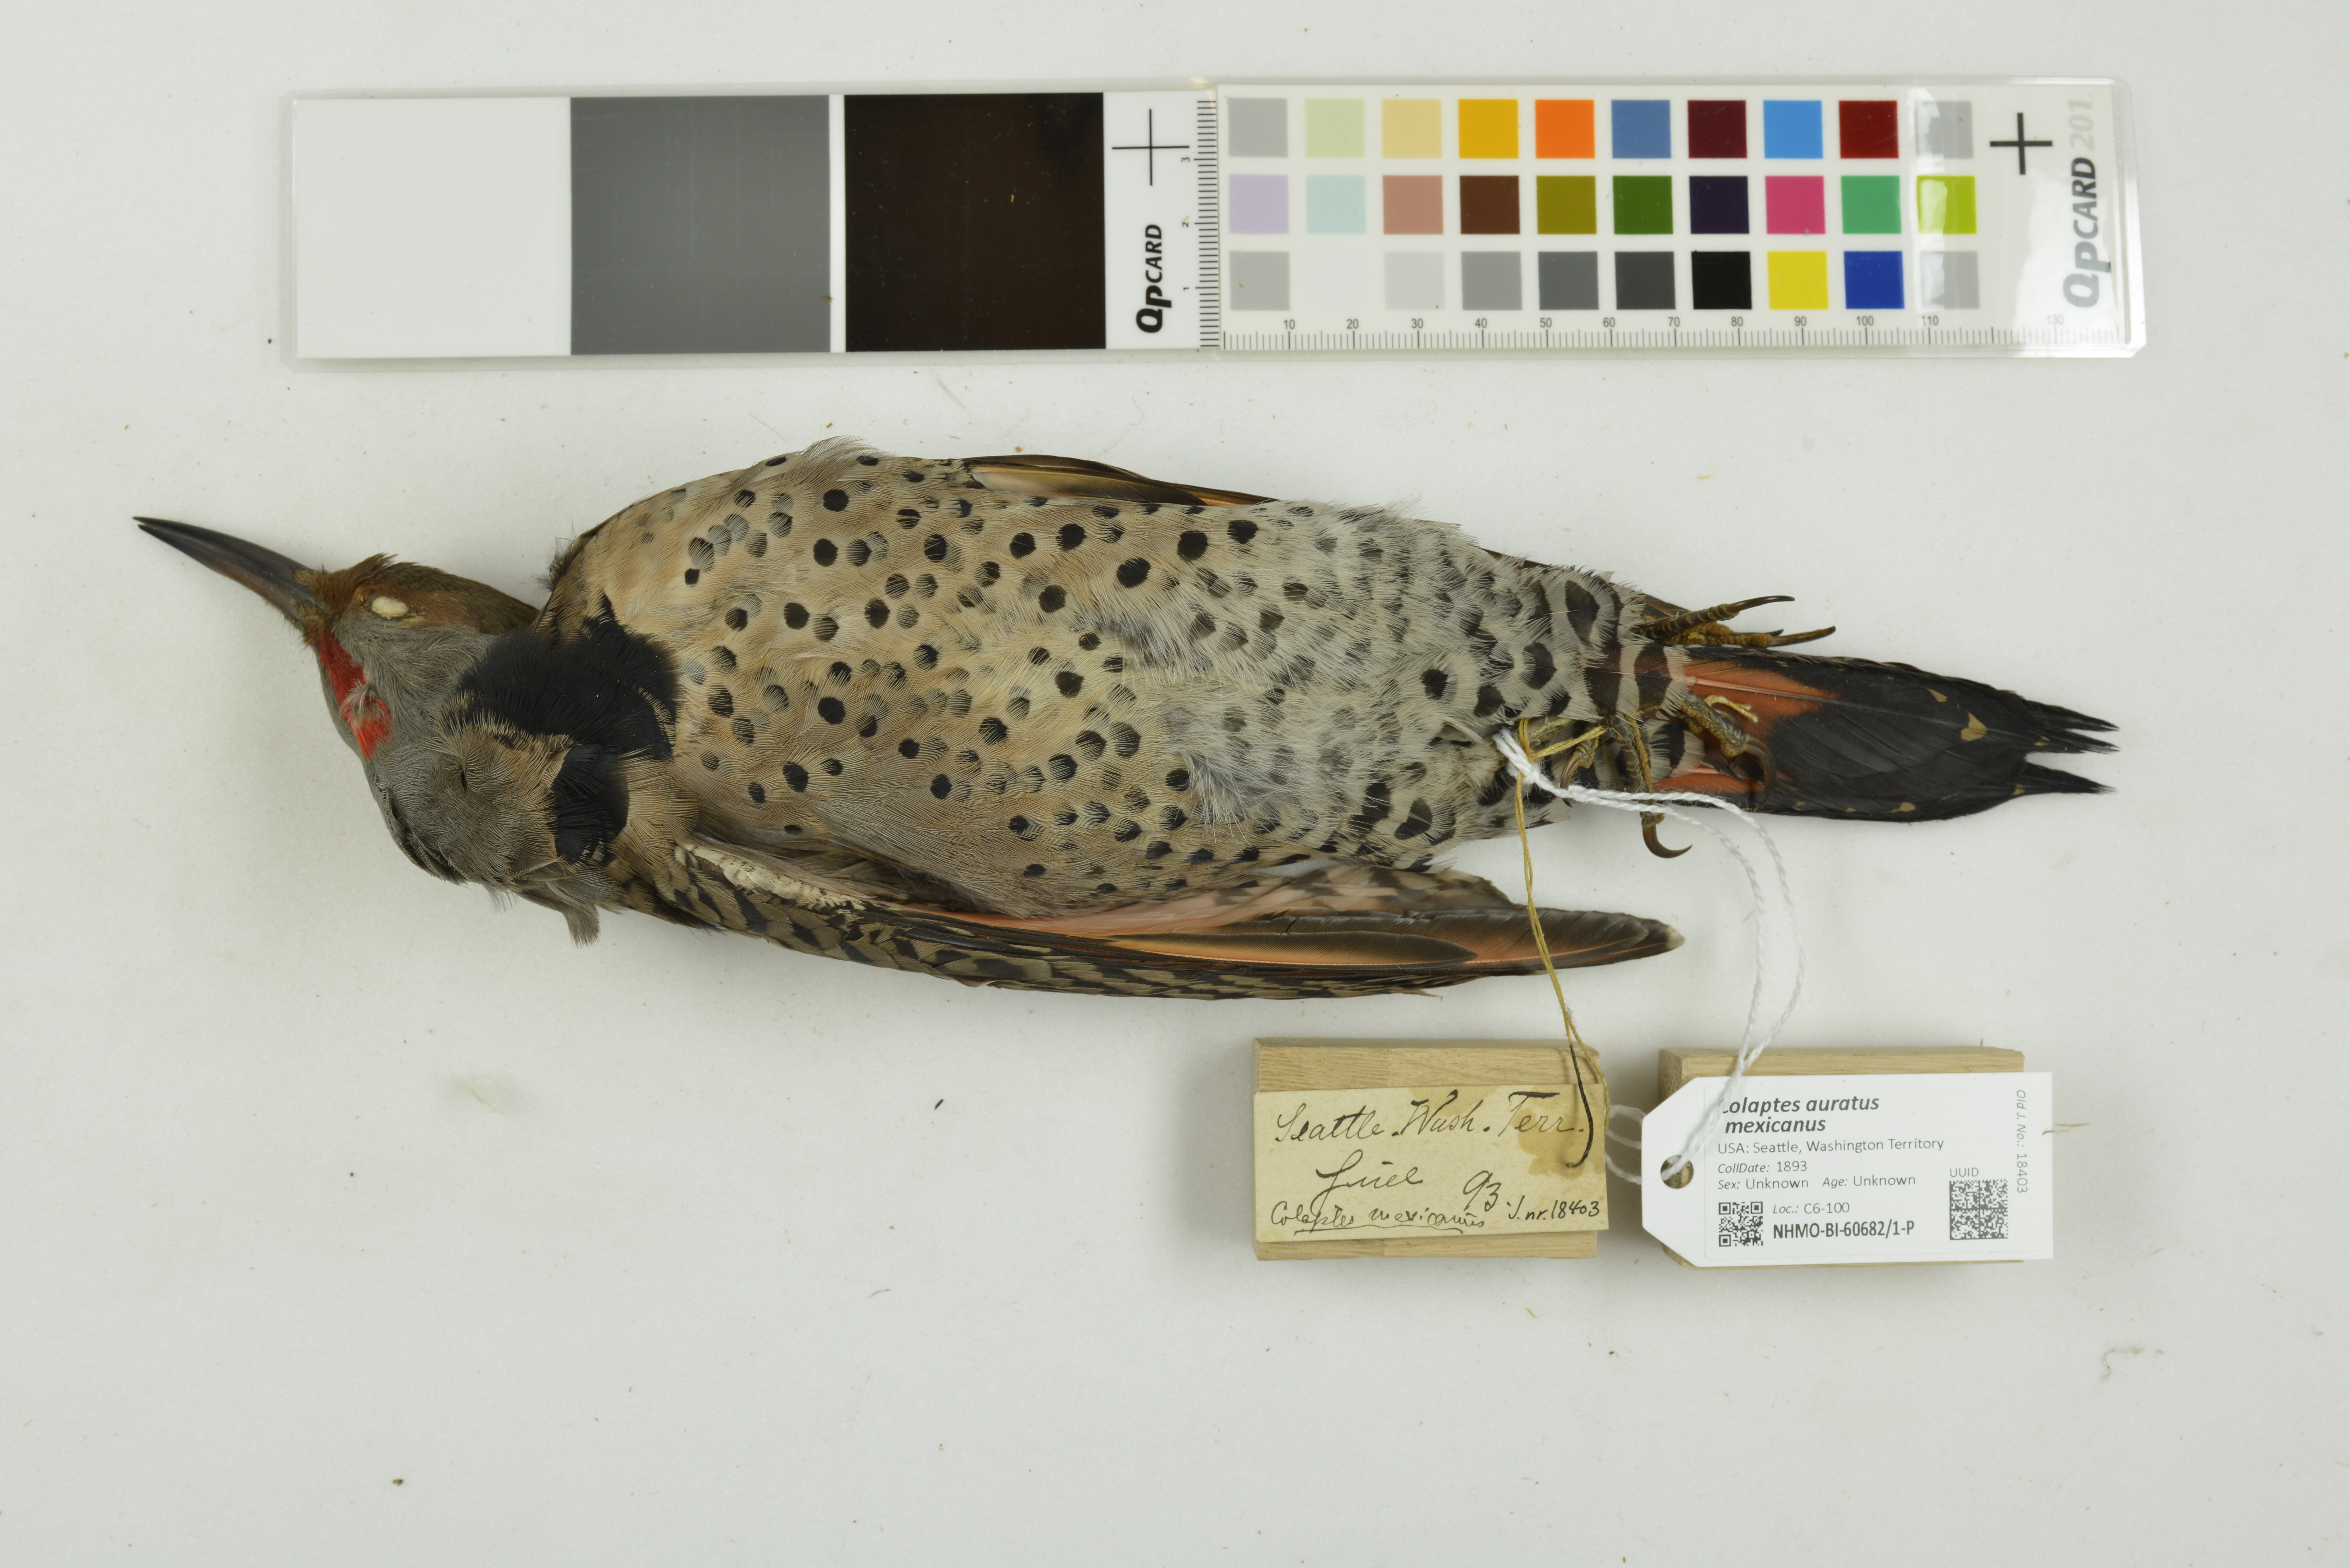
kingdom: Animalia
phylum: Chordata
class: Aves
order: Piciformes
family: Picidae
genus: Colaptes
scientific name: Colaptes auratus
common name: Northern flicker
